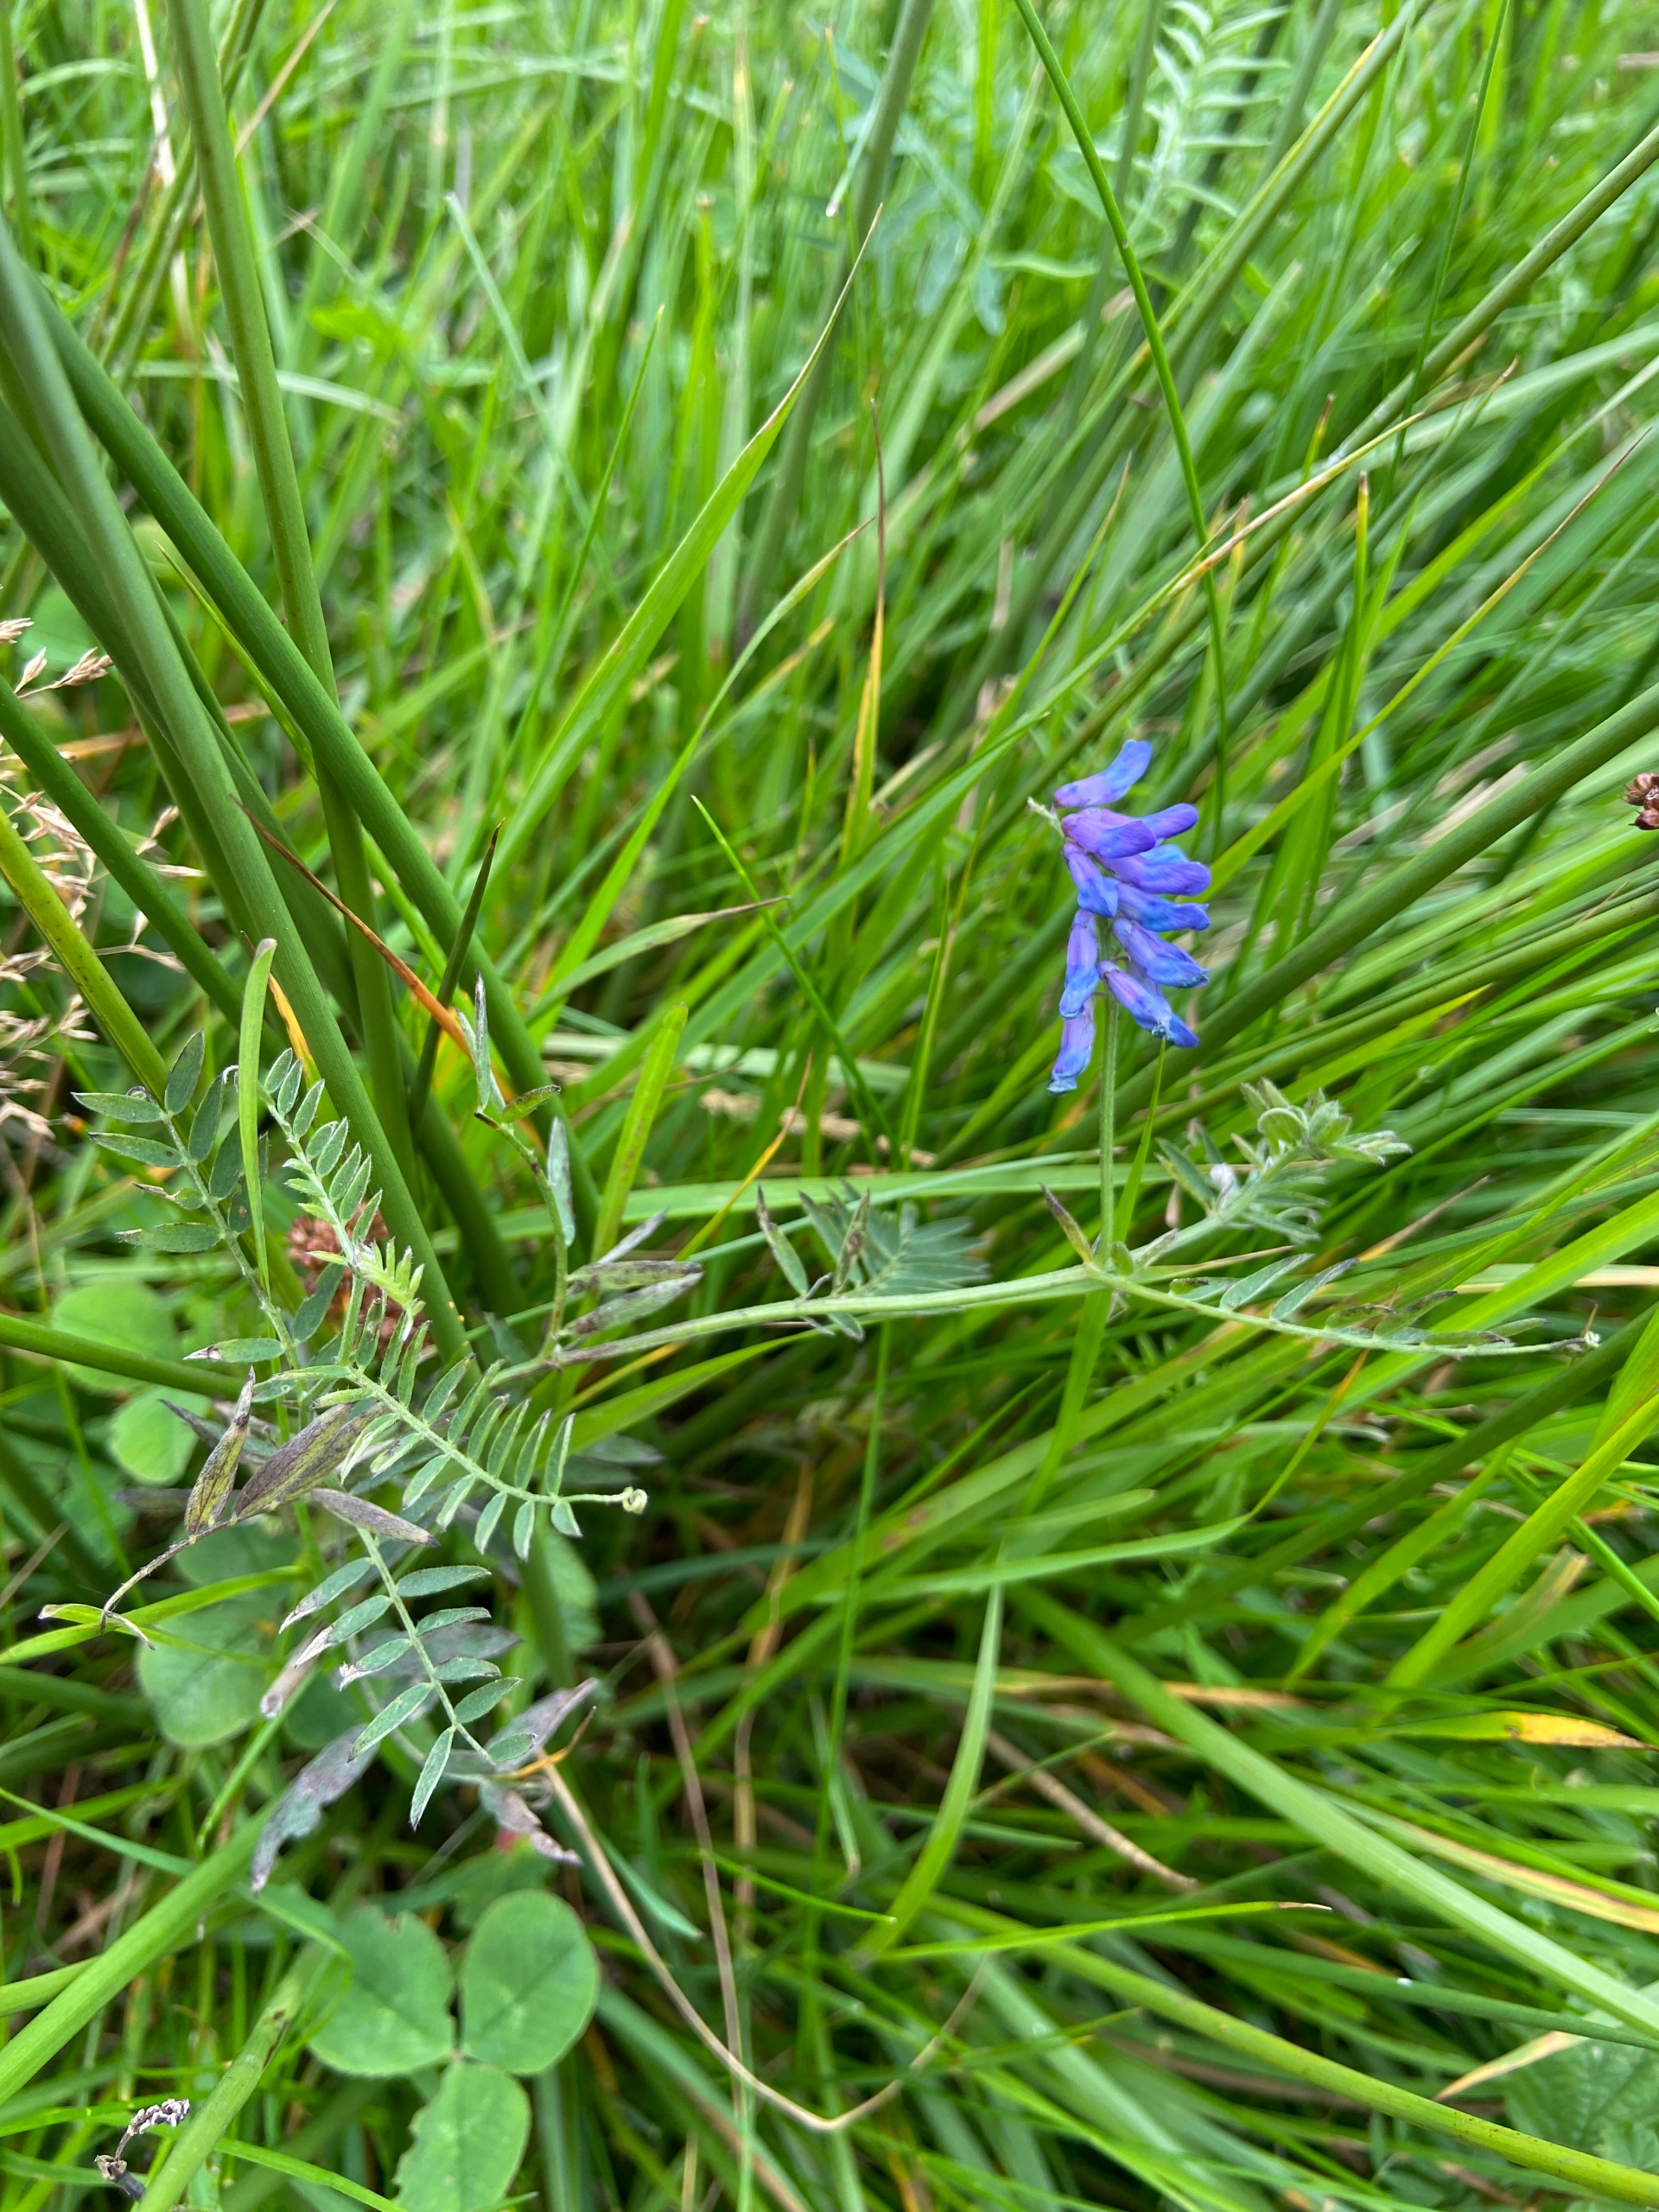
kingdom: Plantae
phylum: Tracheophyta
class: Magnoliopsida
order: Fabales
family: Fabaceae
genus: Vicia
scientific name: Vicia cracca
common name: Muse-vikke
